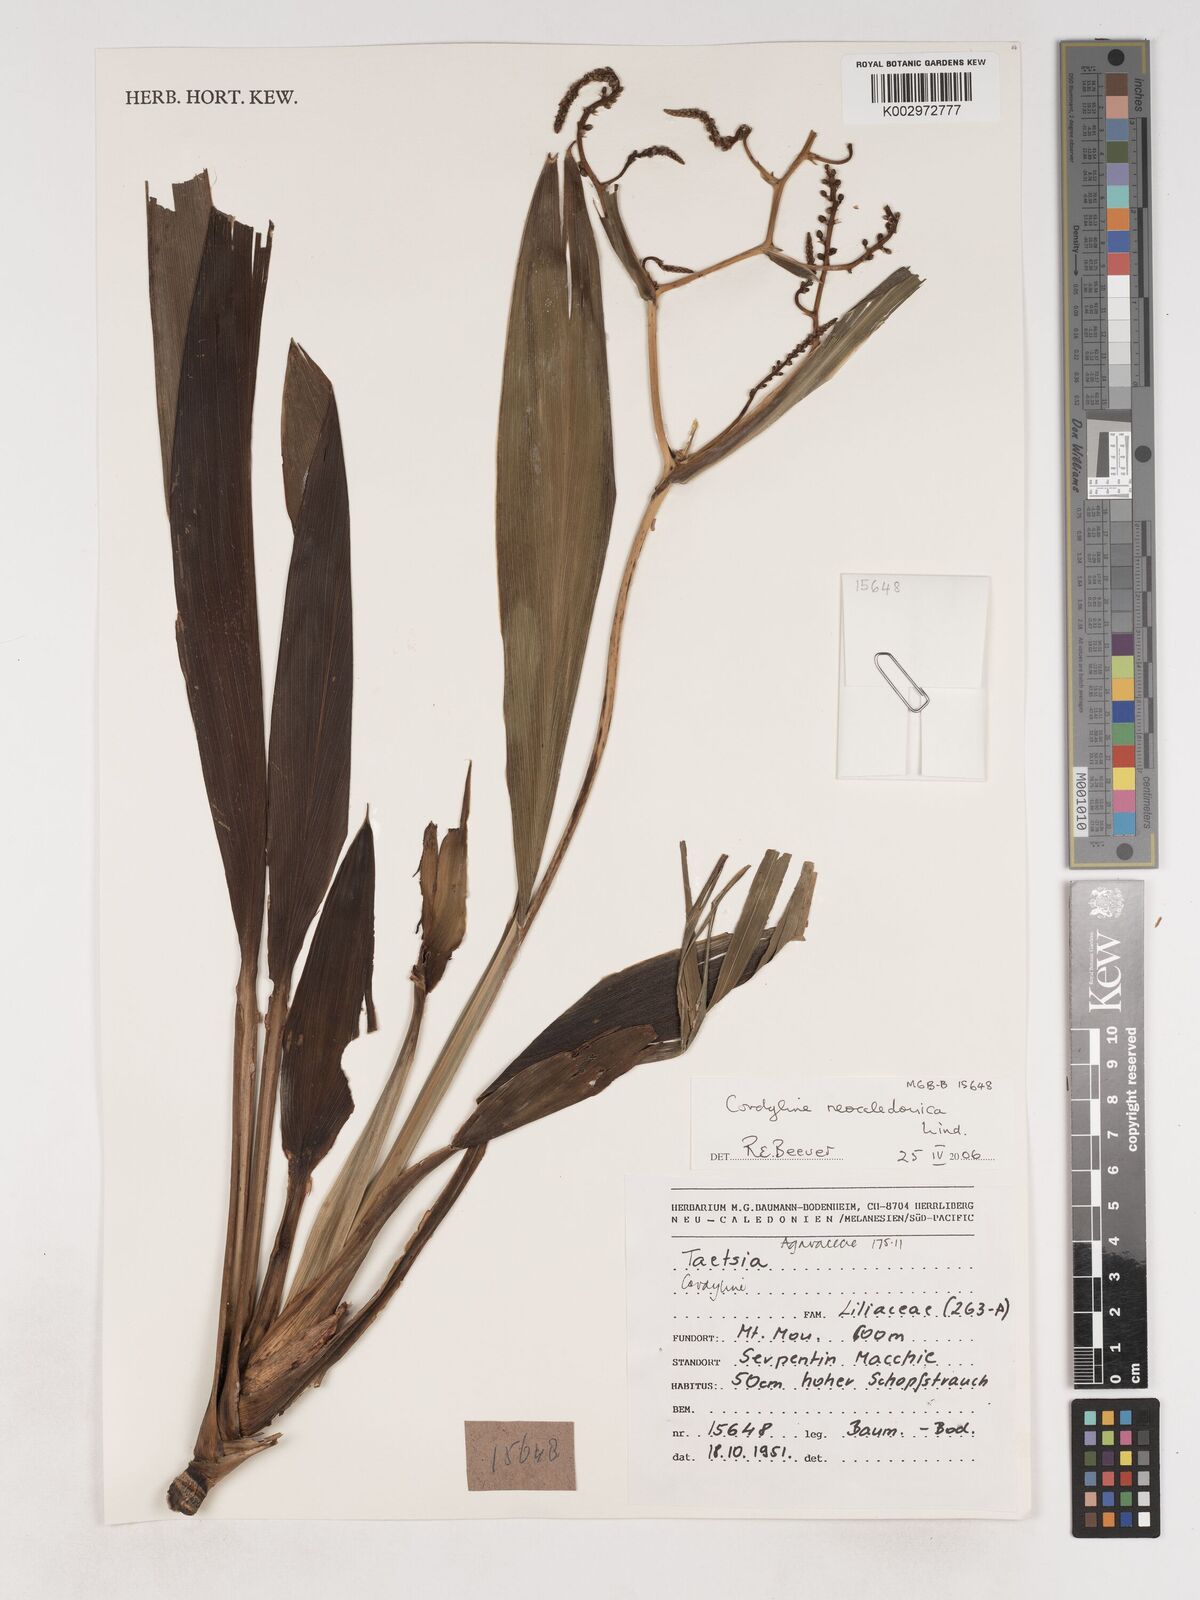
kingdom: Plantae
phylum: Tracheophyta
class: Liliopsida
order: Asparagales
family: Asparagaceae
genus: Cordyline
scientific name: Cordyline neocaledonica
